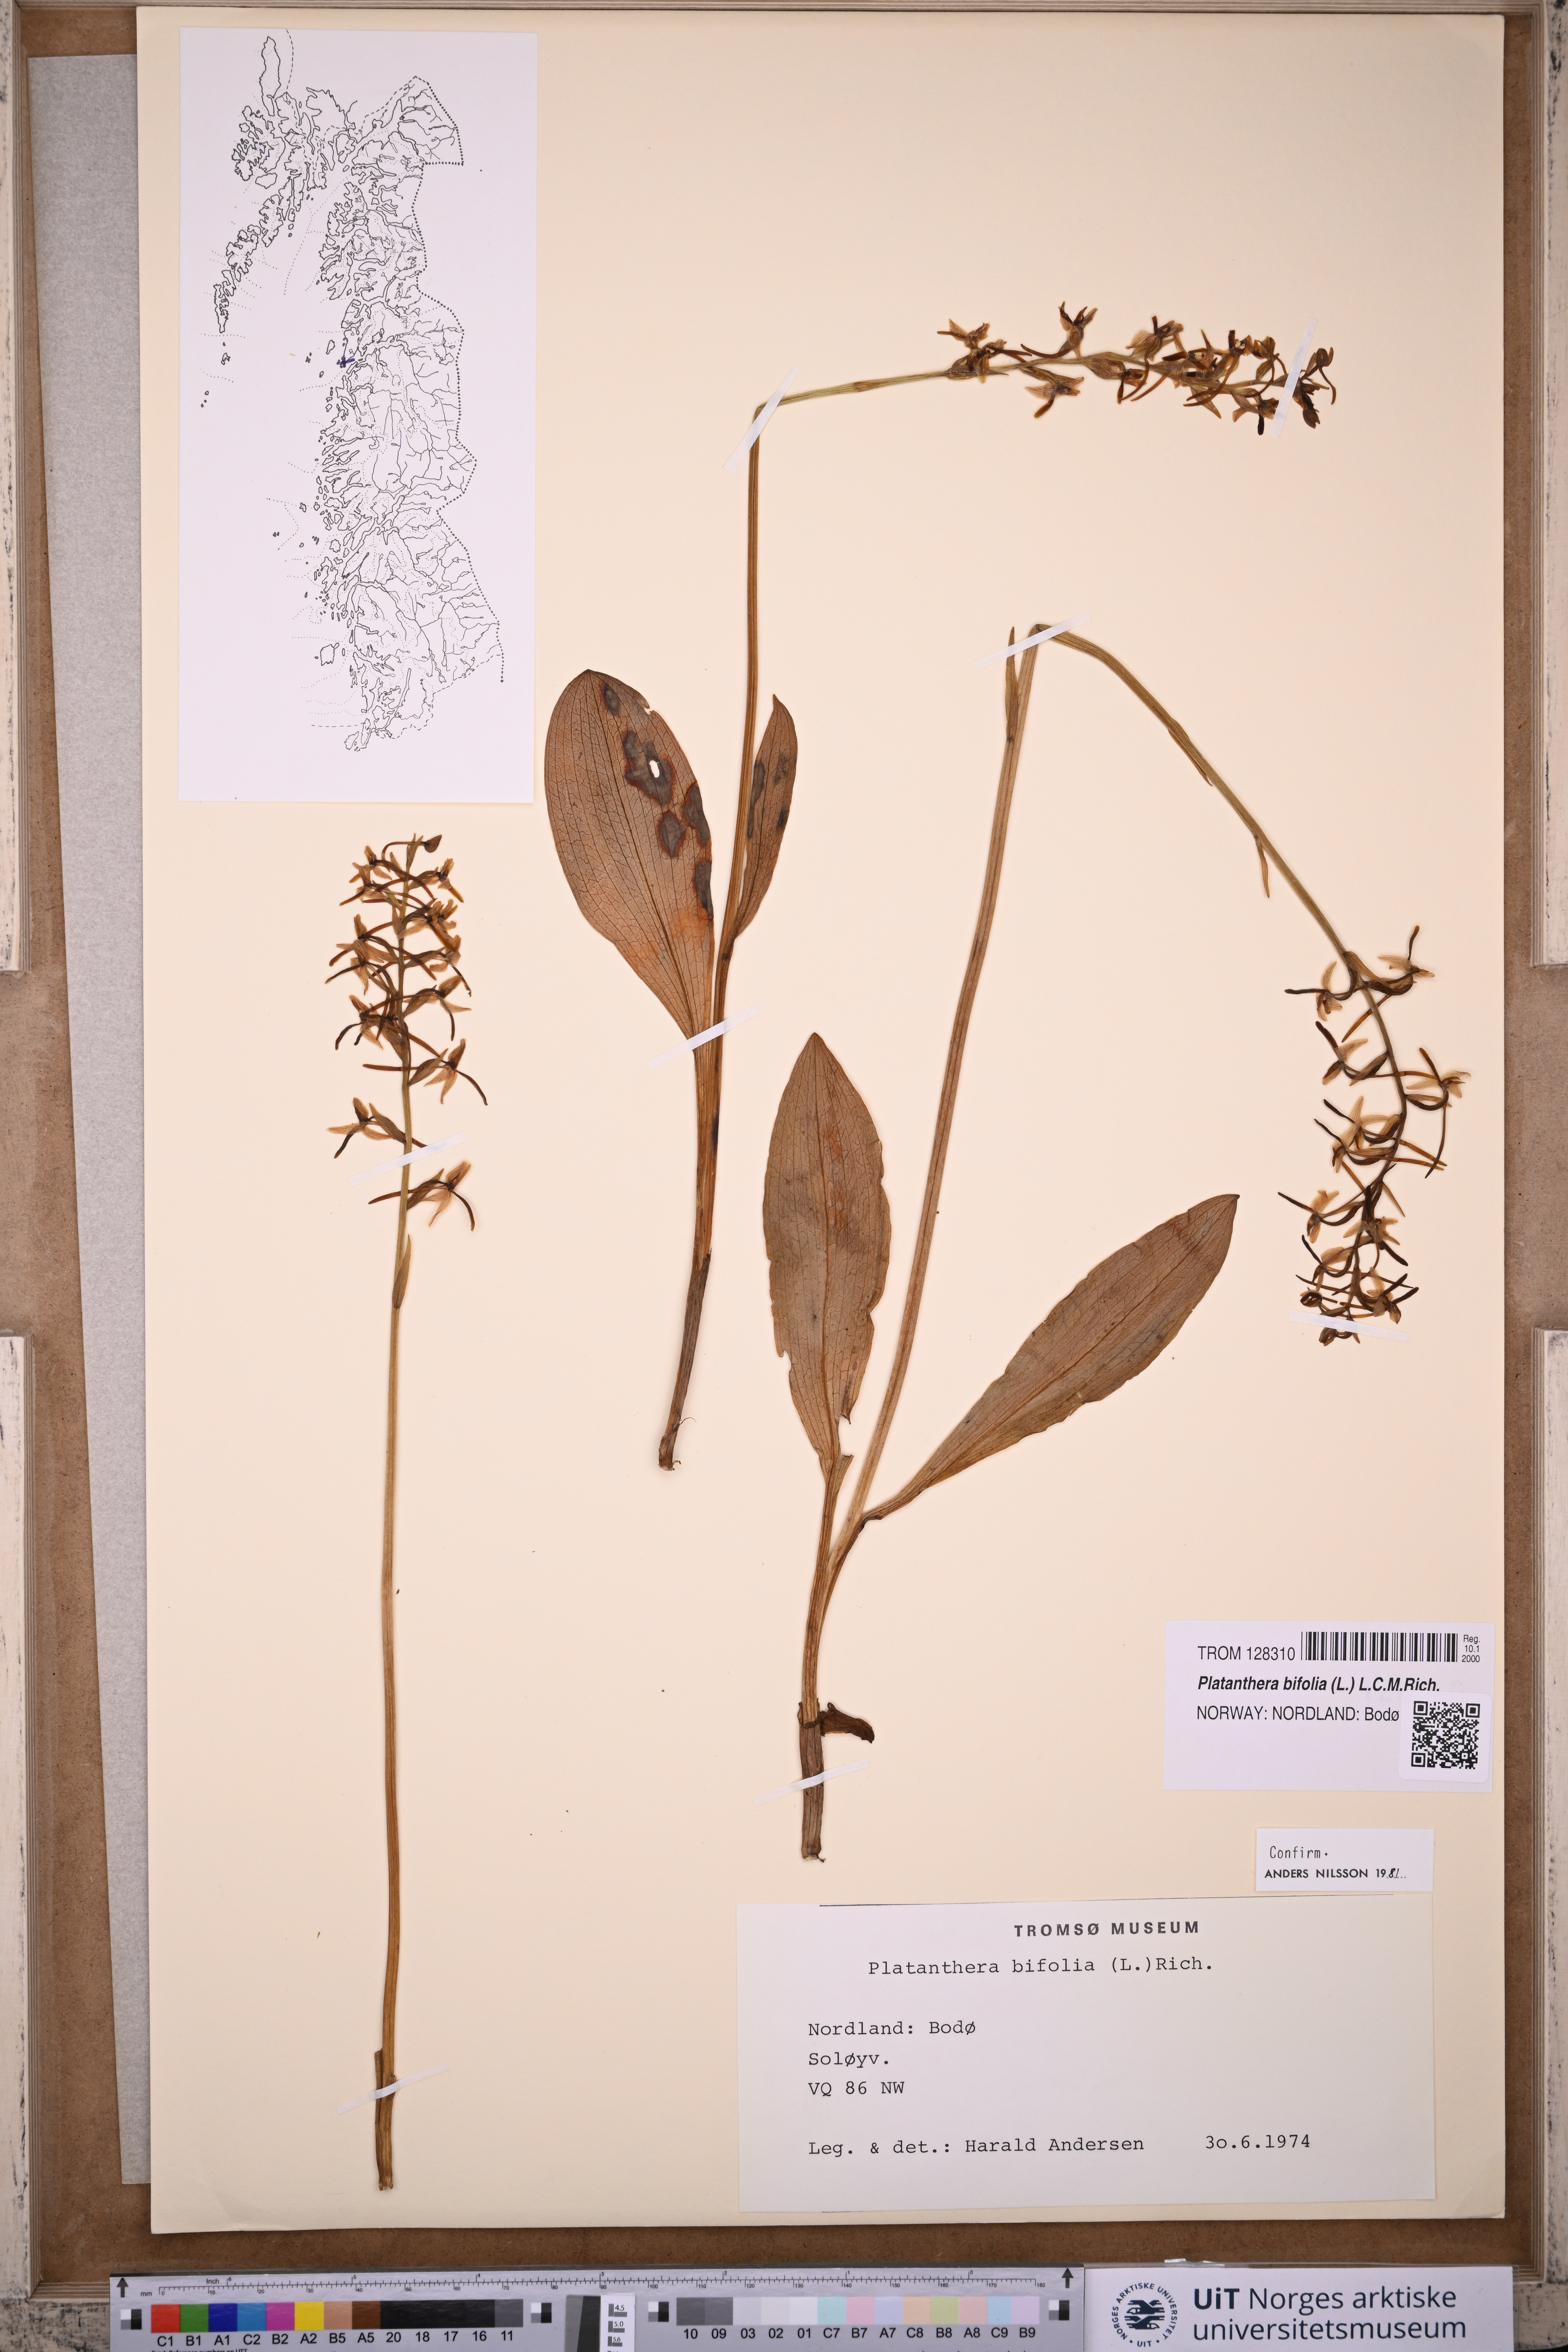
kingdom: Plantae
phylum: Tracheophyta
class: Liliopsida
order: Asparagales
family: Orchidaceae
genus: Platanthera
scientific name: Platanthera bifolia
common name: Lesser butterfly-orchid
